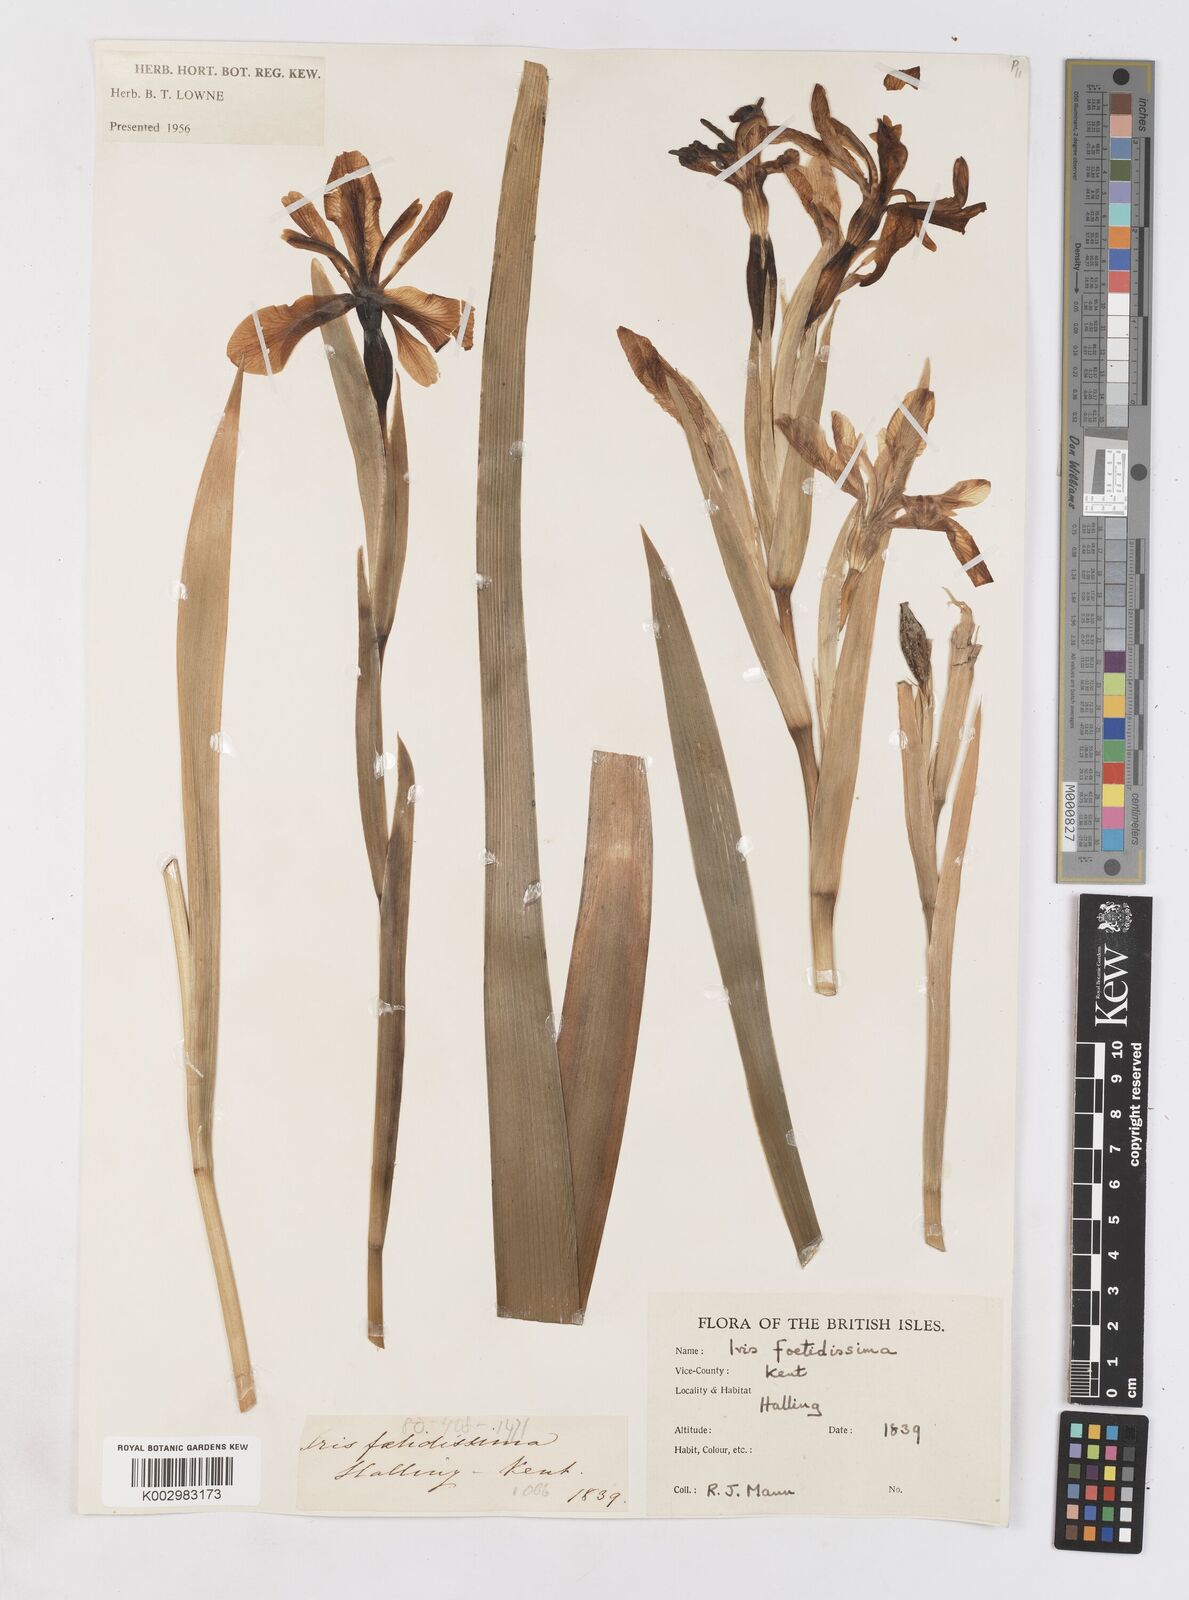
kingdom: Plantae
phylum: Tracheophyta
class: Liliopsida
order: Asparagales
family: Iridaceae
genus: Iris
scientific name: Iris foetidissima
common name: Stinking iris
